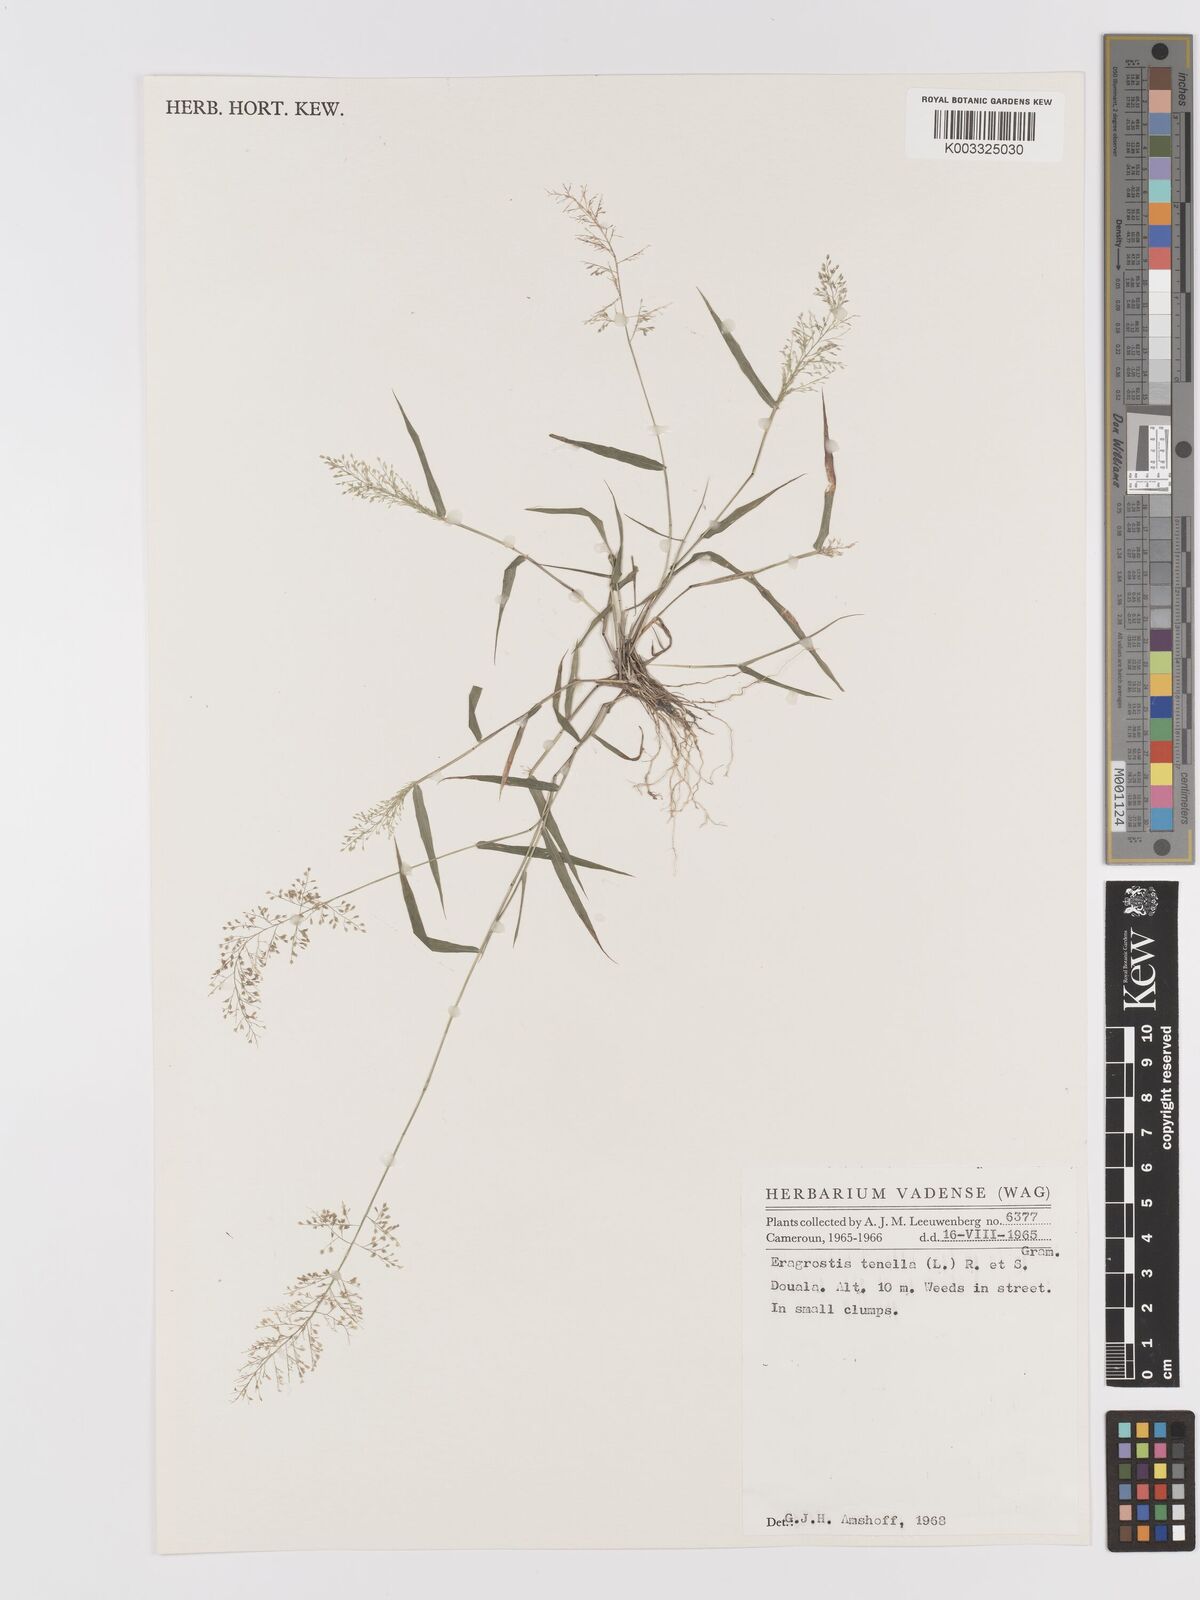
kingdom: Plantae
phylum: Tracheophyta
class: Liliopsida
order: Poales
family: Poaceae
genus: Eragrostis
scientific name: Eragrostis tenella
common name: Japanese lovegrass
